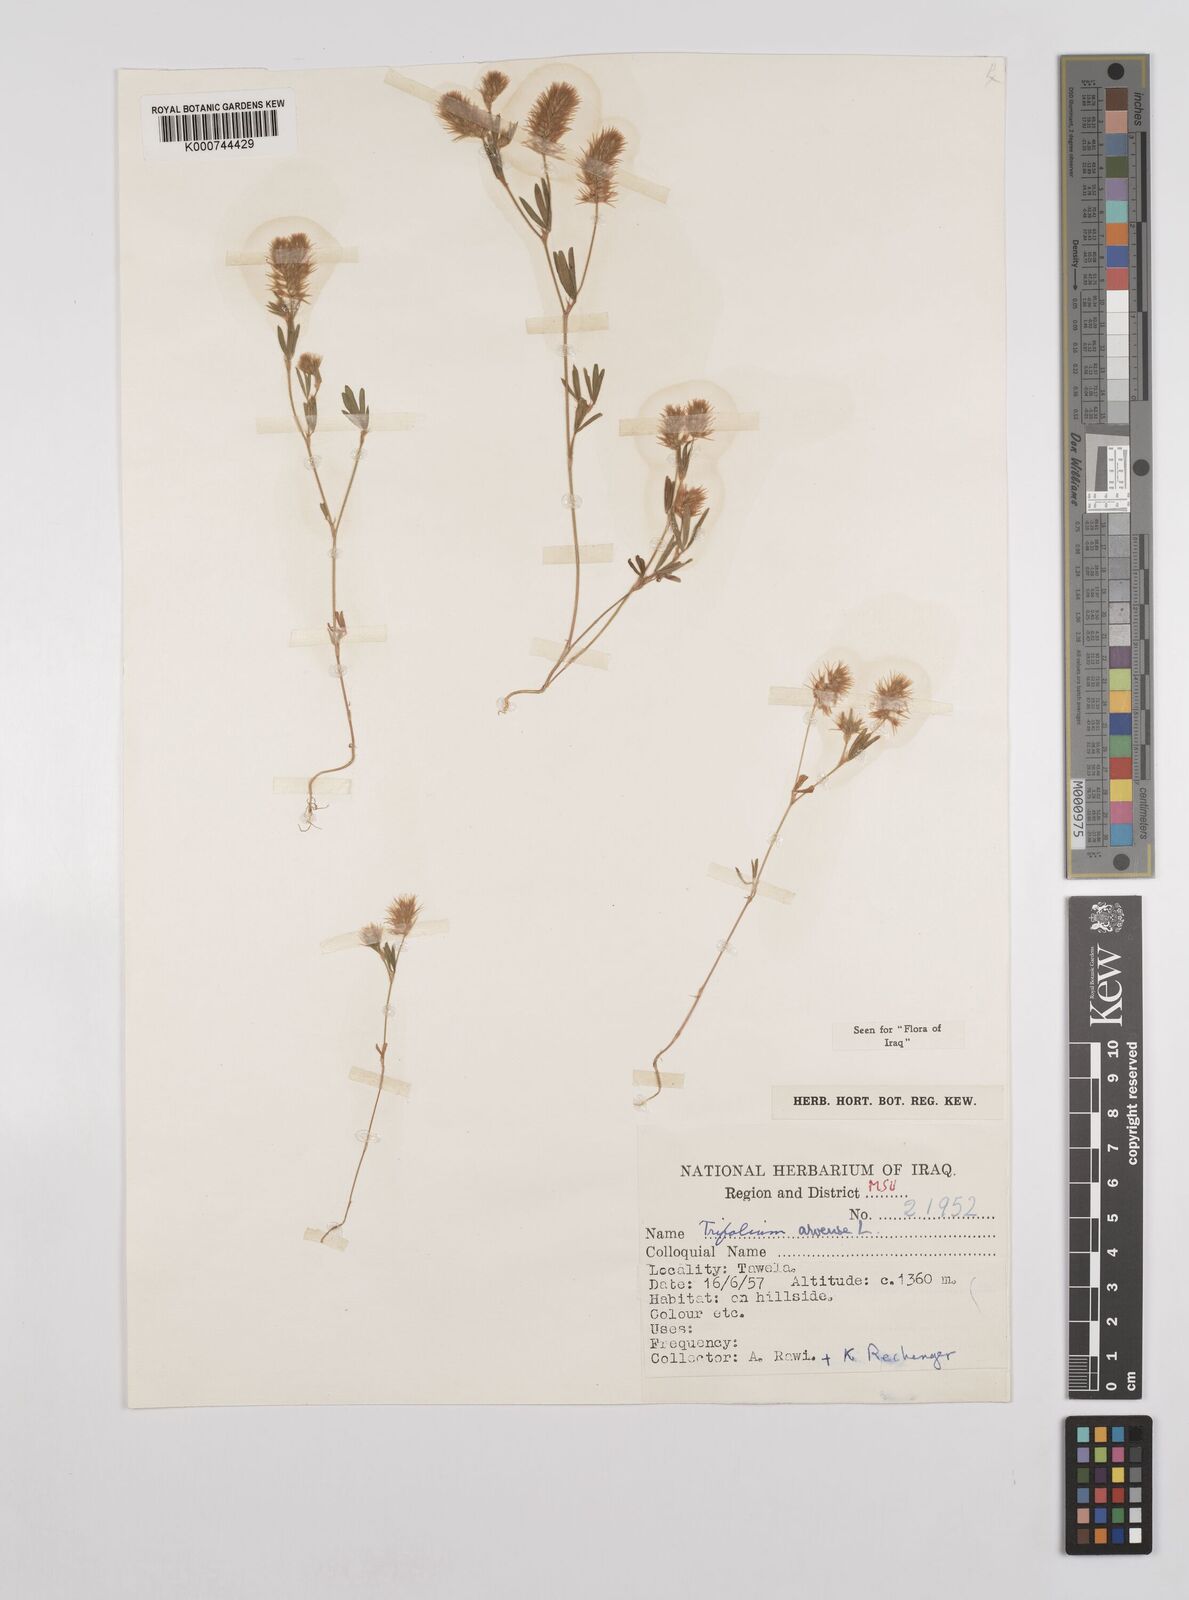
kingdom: Plantae
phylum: Tracheophyta
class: Magnoliopsida
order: Fabales
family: Fabaceae
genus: Trifolium
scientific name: Trifolium arvense
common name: Hare's-foot clover
